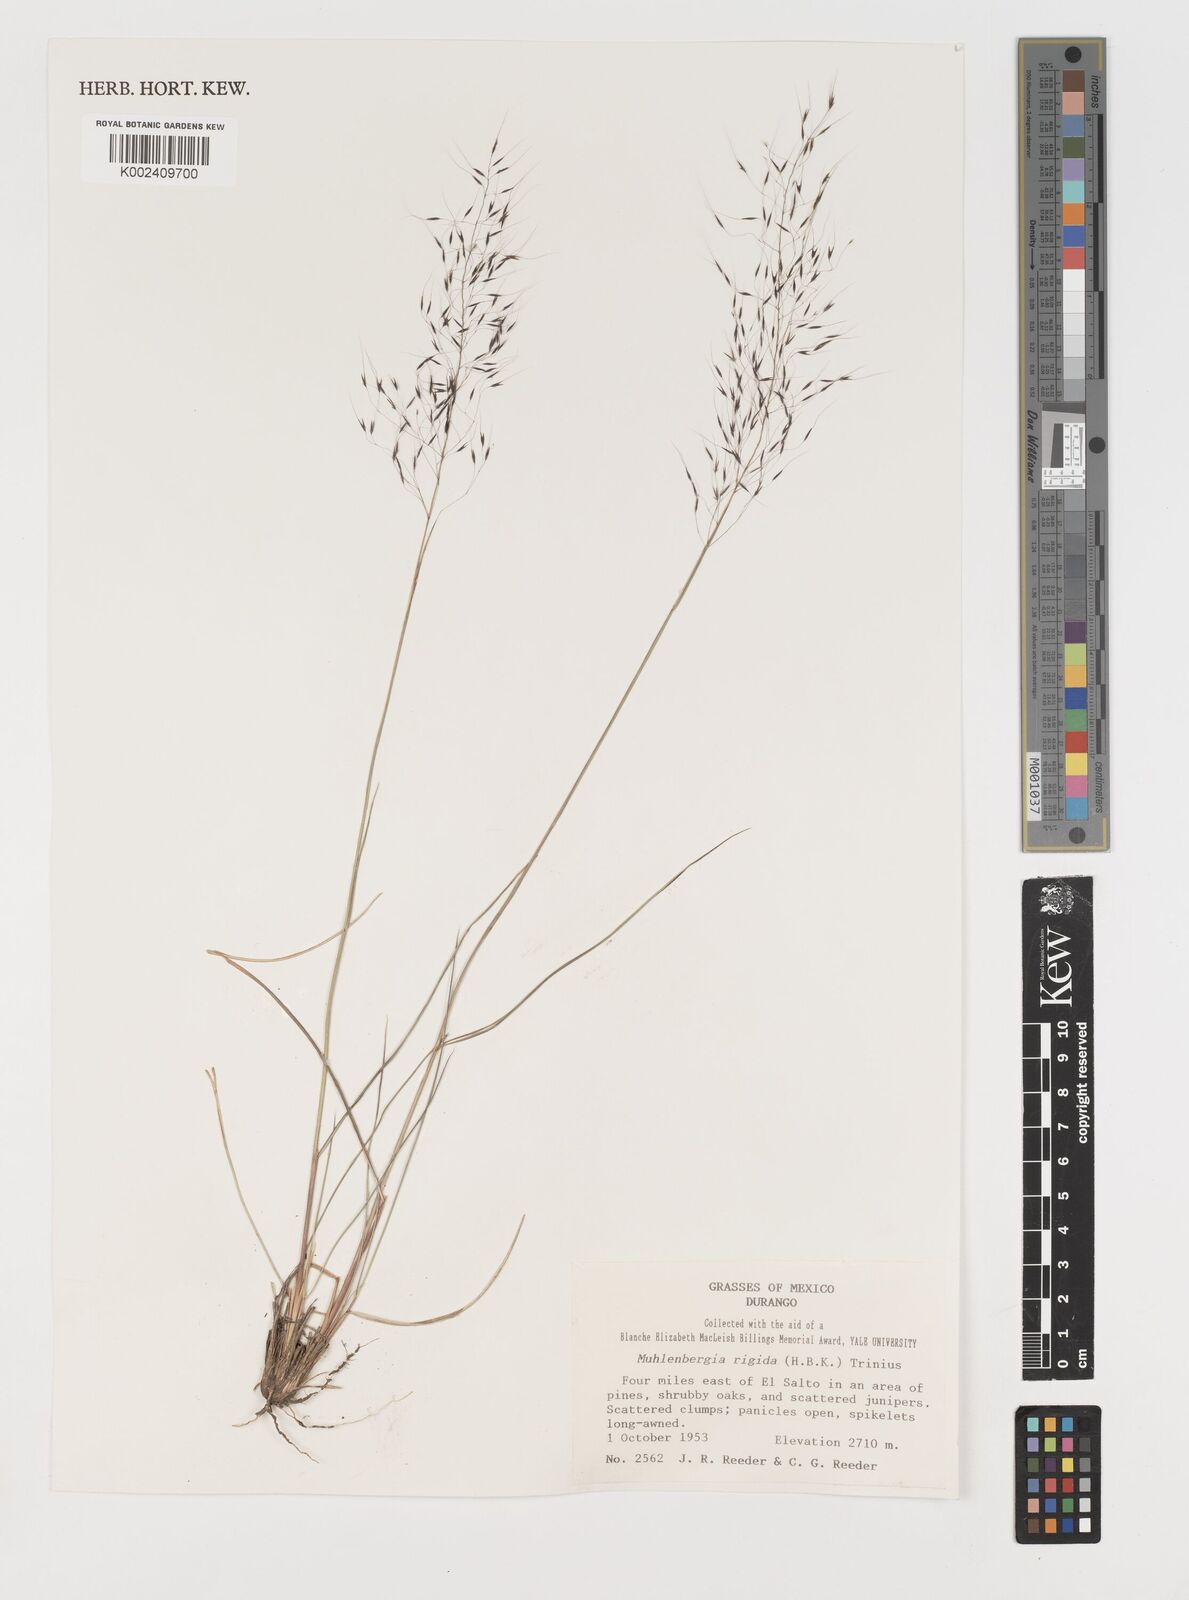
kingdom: Plantae
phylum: Tracheophyta
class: Liliopsida
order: Poales
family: Poaceae
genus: Muhlenbergia
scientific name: Muhlenbergia rigida
